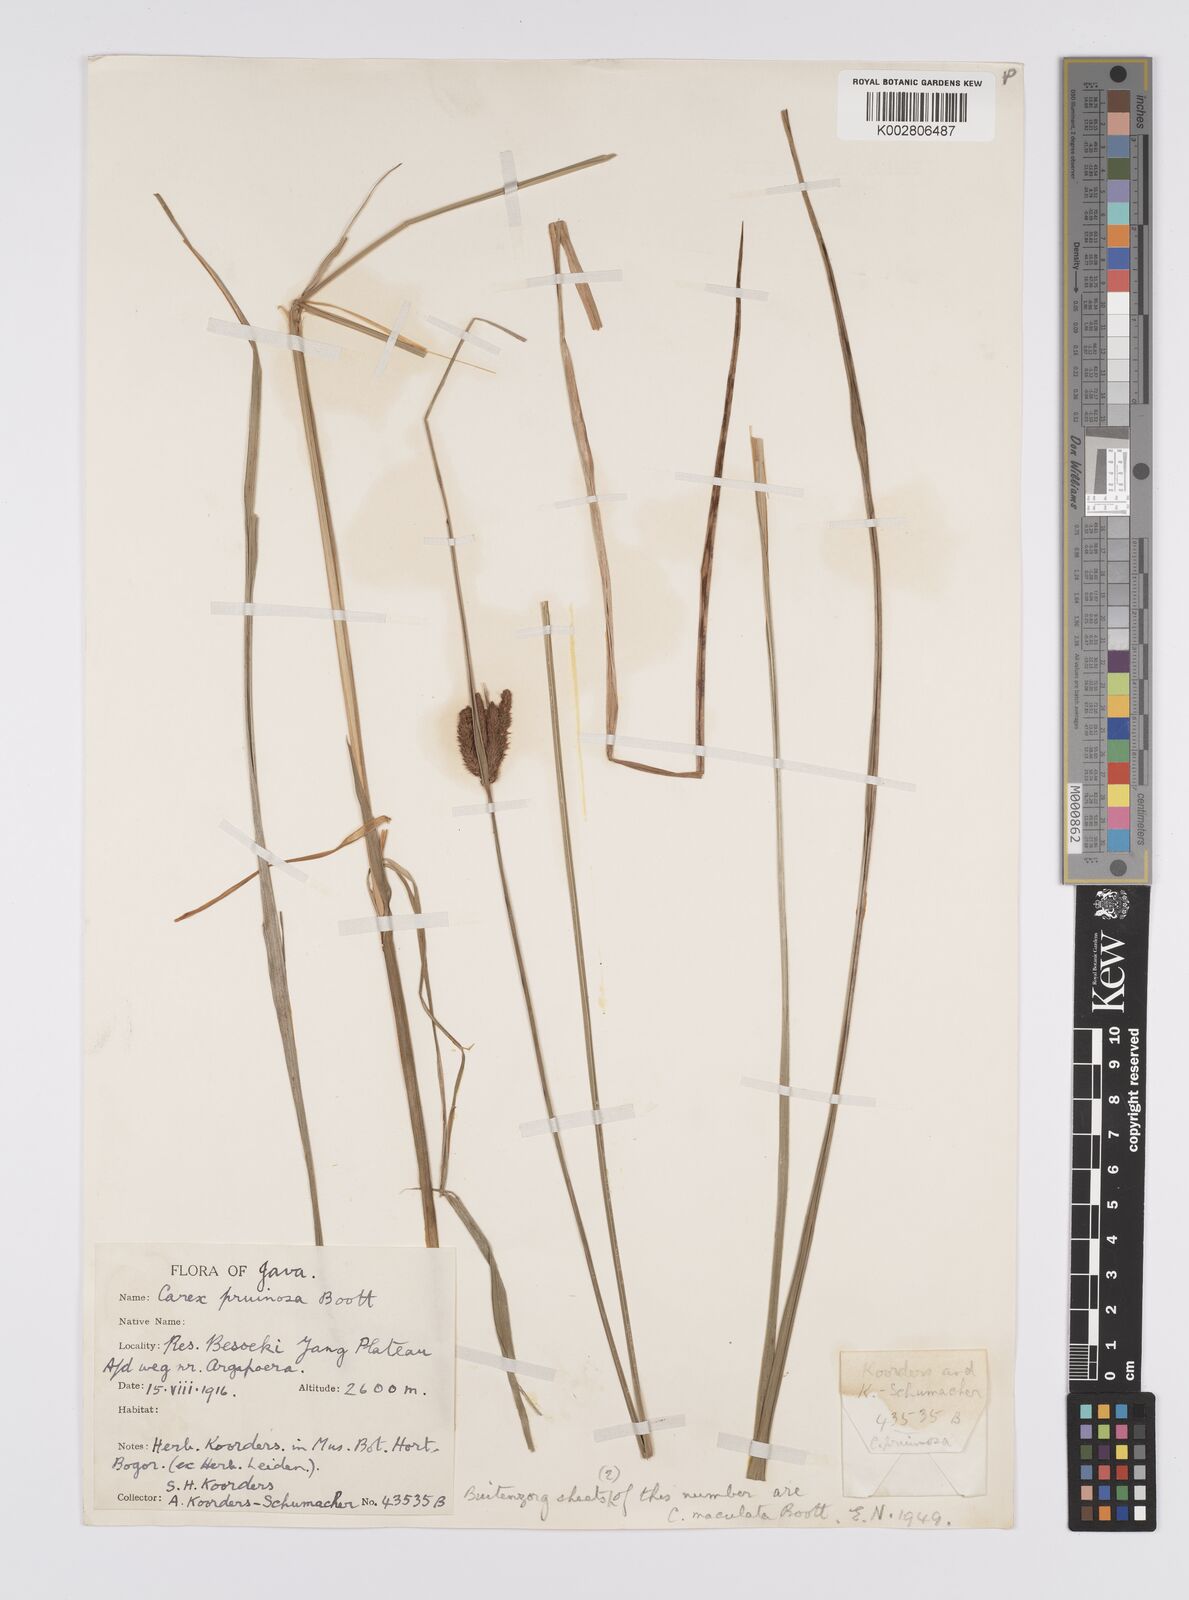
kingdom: Plantae
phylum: Tracheophyta
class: Liliopsida
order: Poales
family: Cyperaceae
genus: Carex
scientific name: Carex pruinosa
